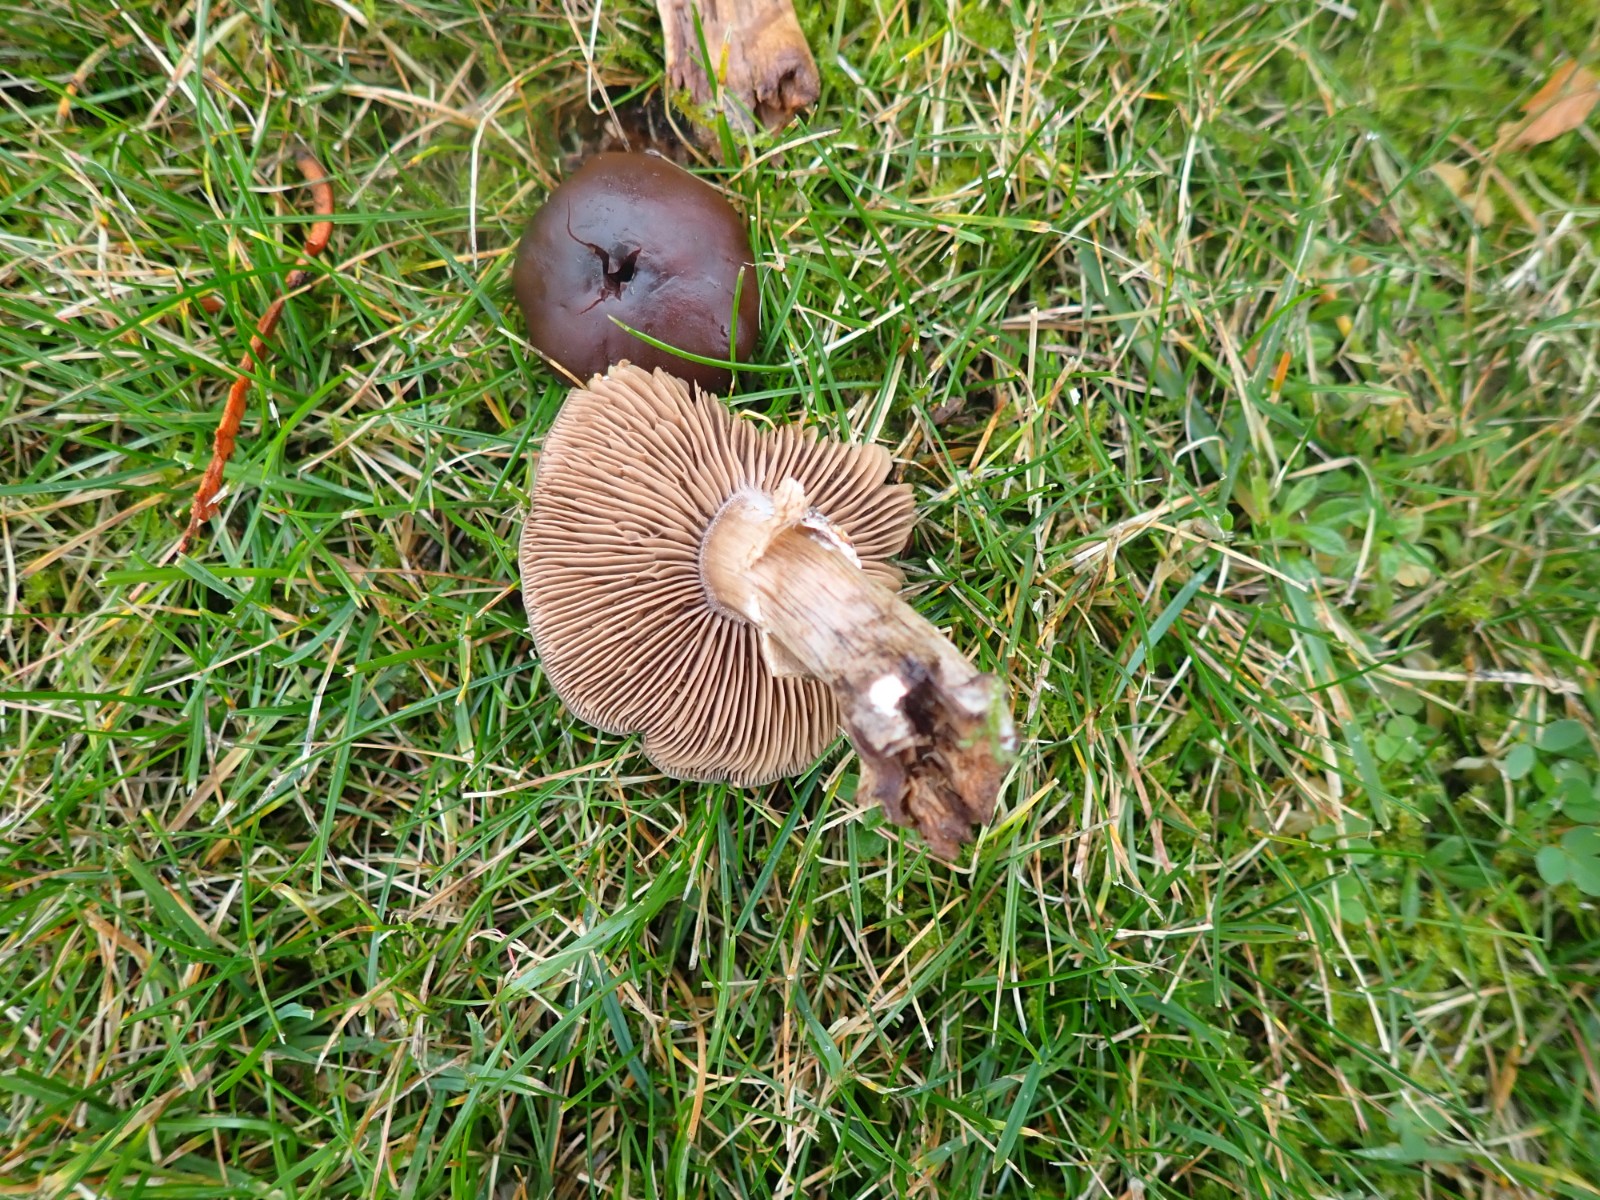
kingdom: Fungi
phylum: Basidiomycota
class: Agaricomycetes
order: Agaricales
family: Tubariaceae
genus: Cyclocybe
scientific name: Cyclocybe erebia
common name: mørk agerhat
